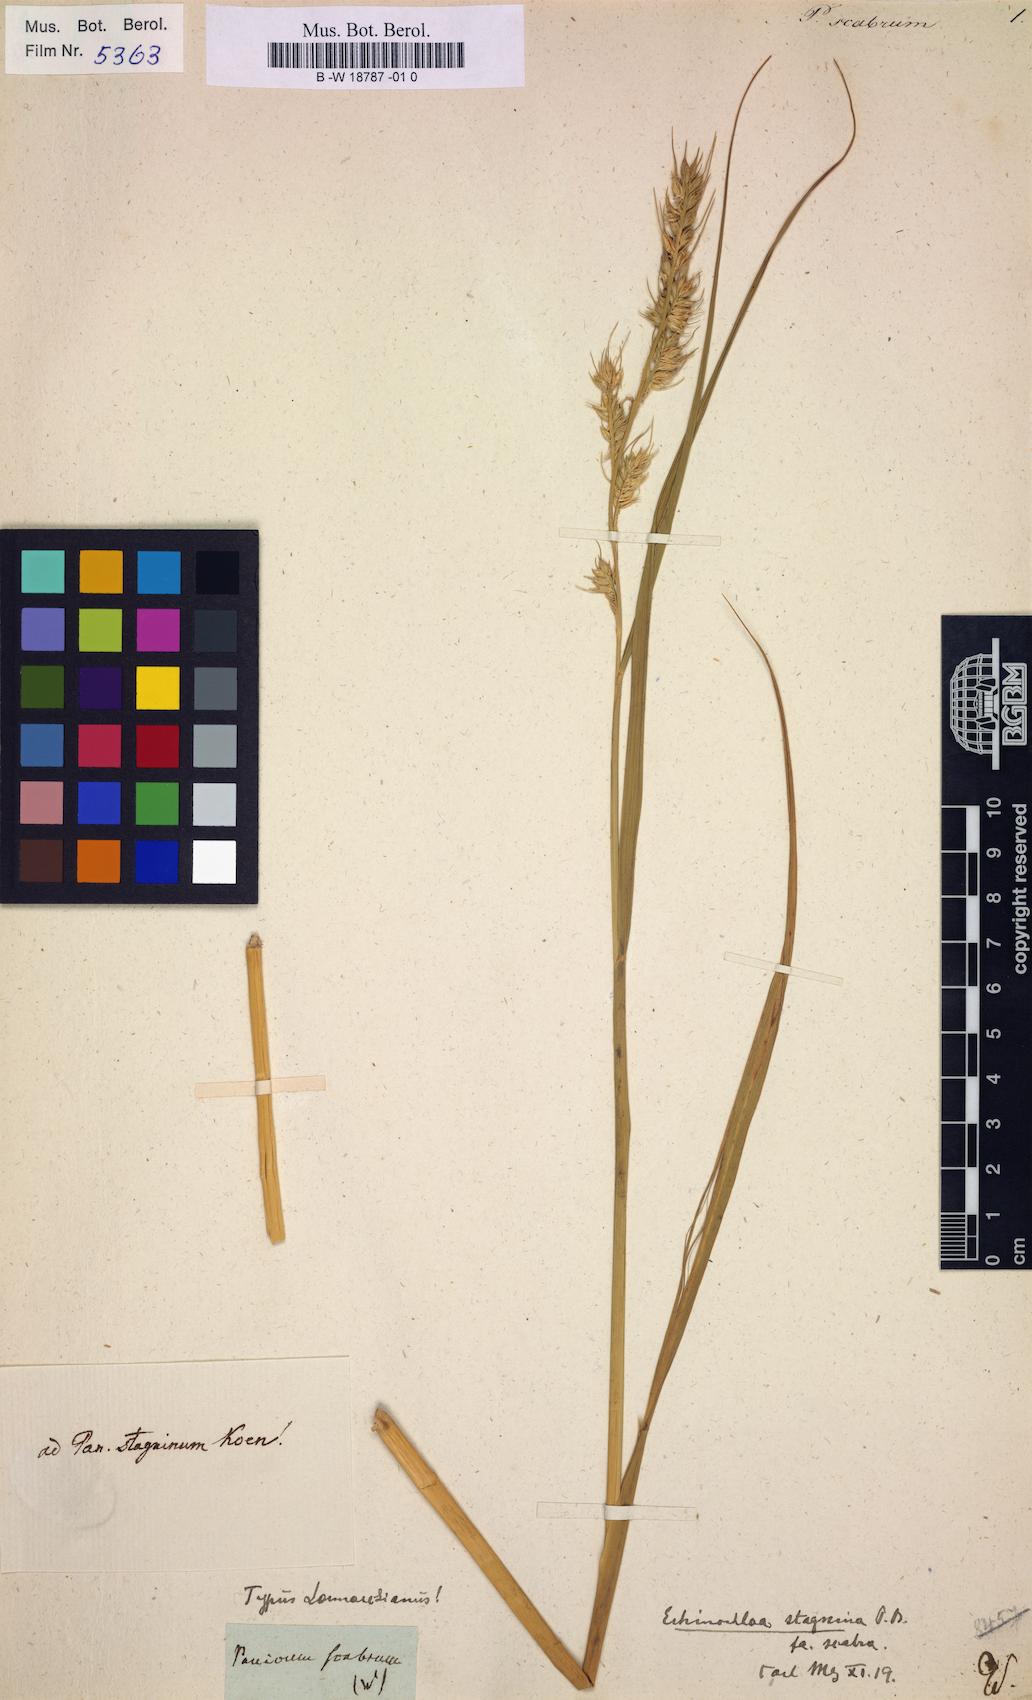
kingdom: Plantae
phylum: Tracheophyta
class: Liliopsida
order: Poales
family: Poaceae
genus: Panicum
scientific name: Panicum scabrum
